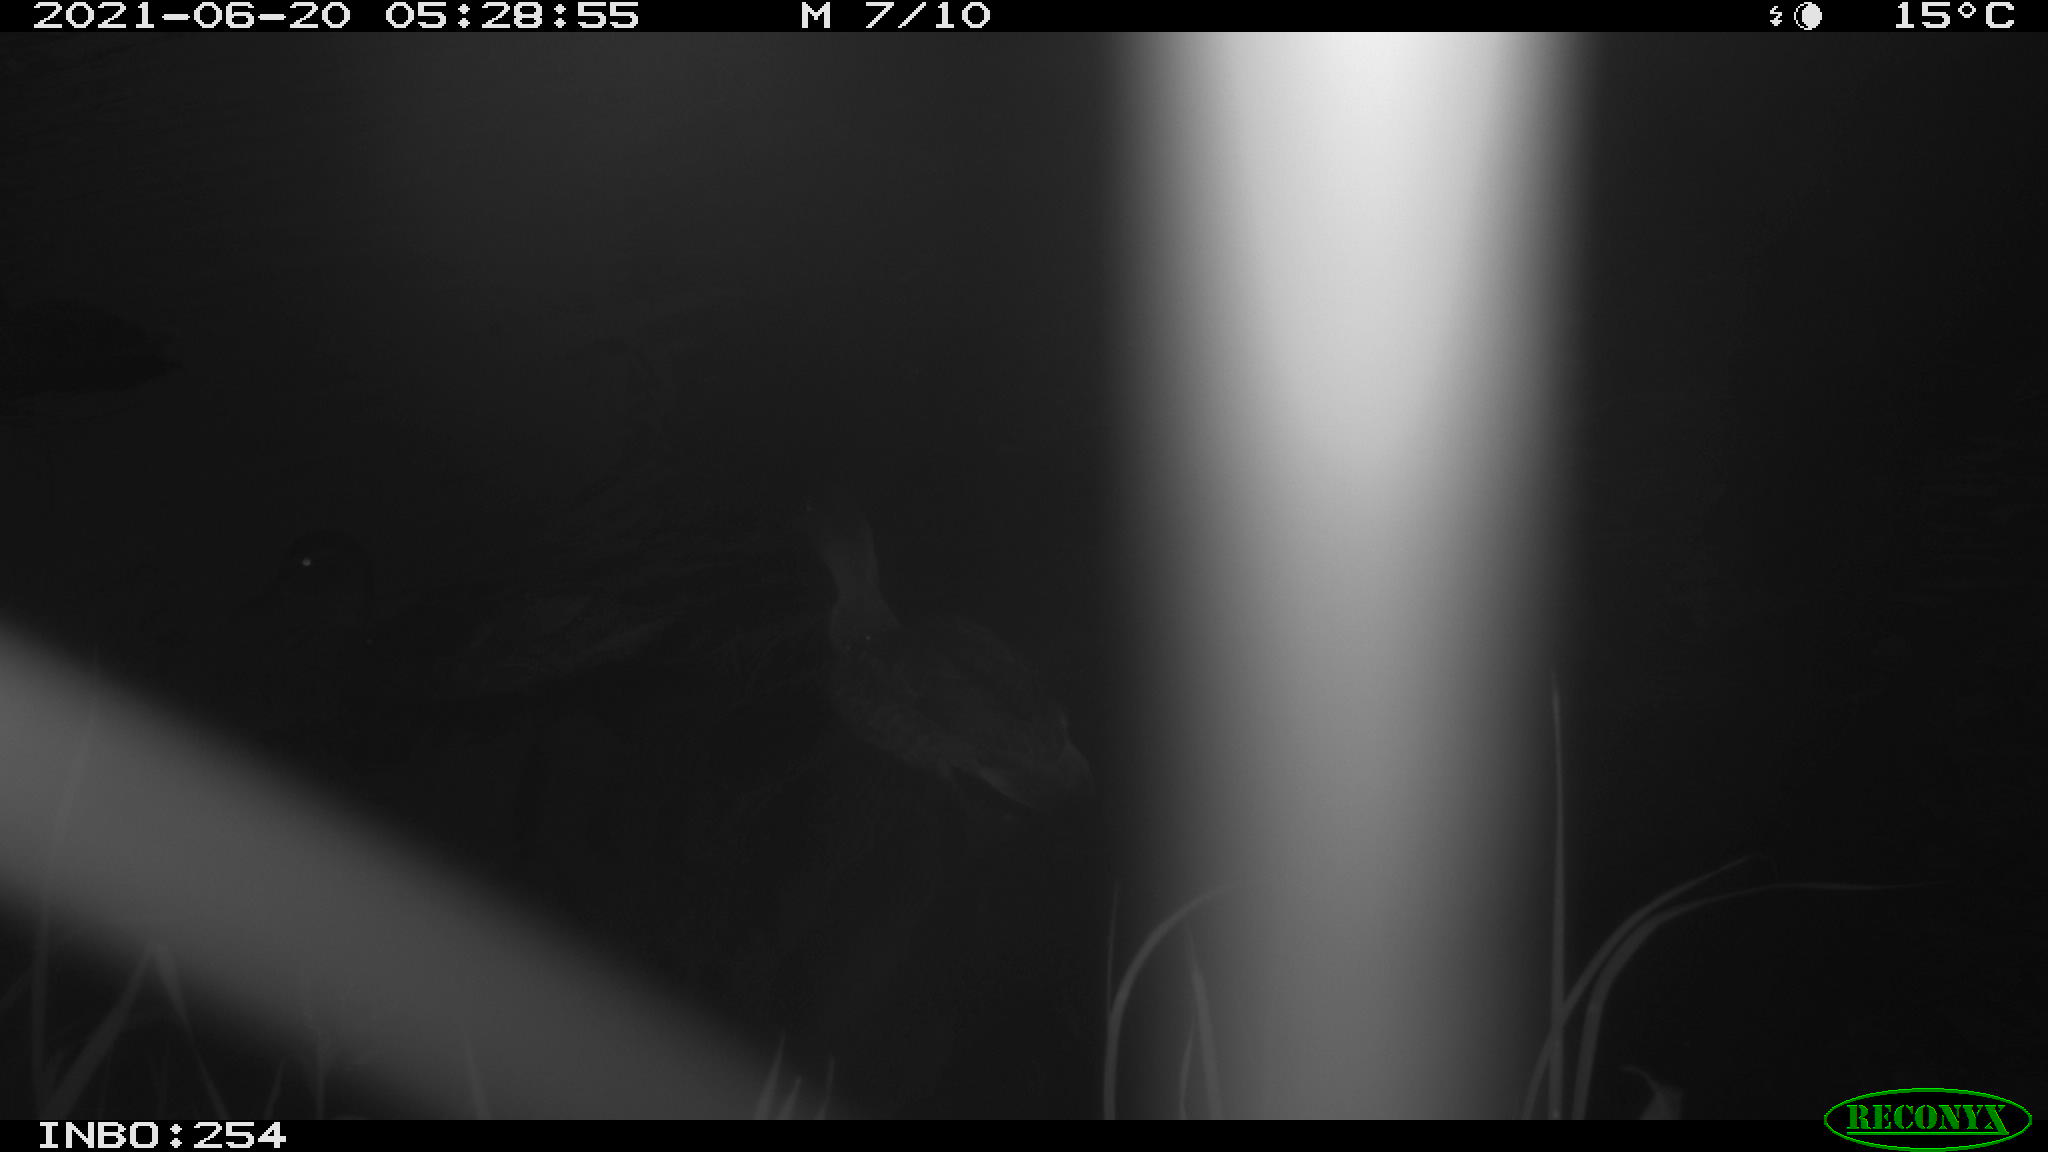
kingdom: Animalia
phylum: Chordata
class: Aves
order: Anseriformes
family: Anatidae
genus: Anas
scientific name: Anas platyrhynchos
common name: Mallard
